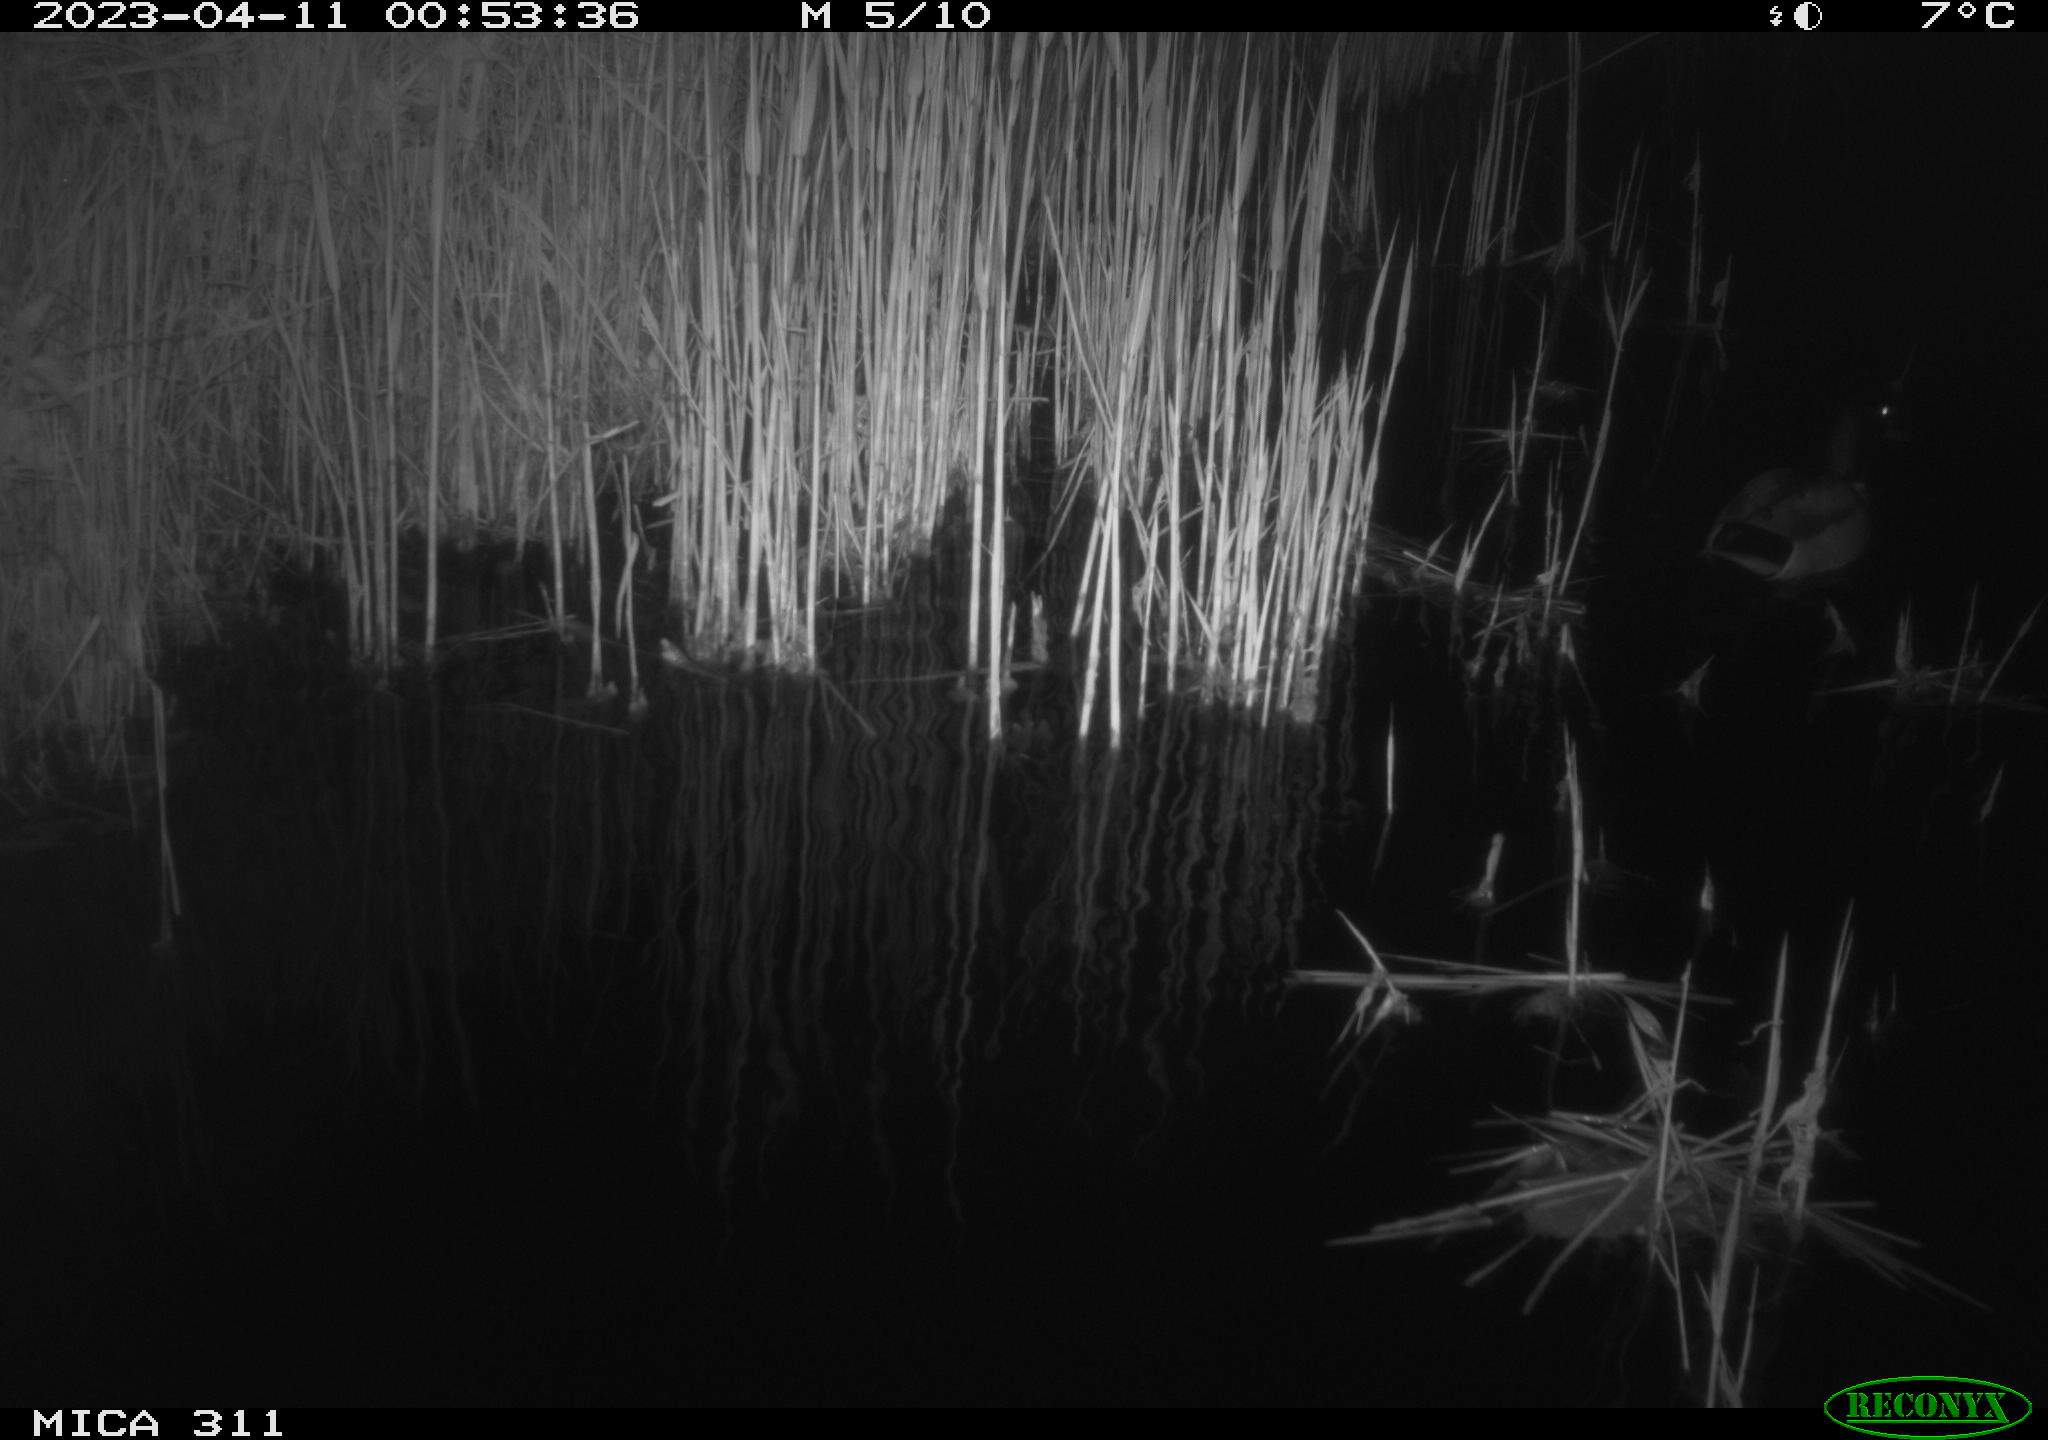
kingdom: Animalia
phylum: Chordata
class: Aves
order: Anseriformes
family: Anatidae
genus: Anas
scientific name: Anas
